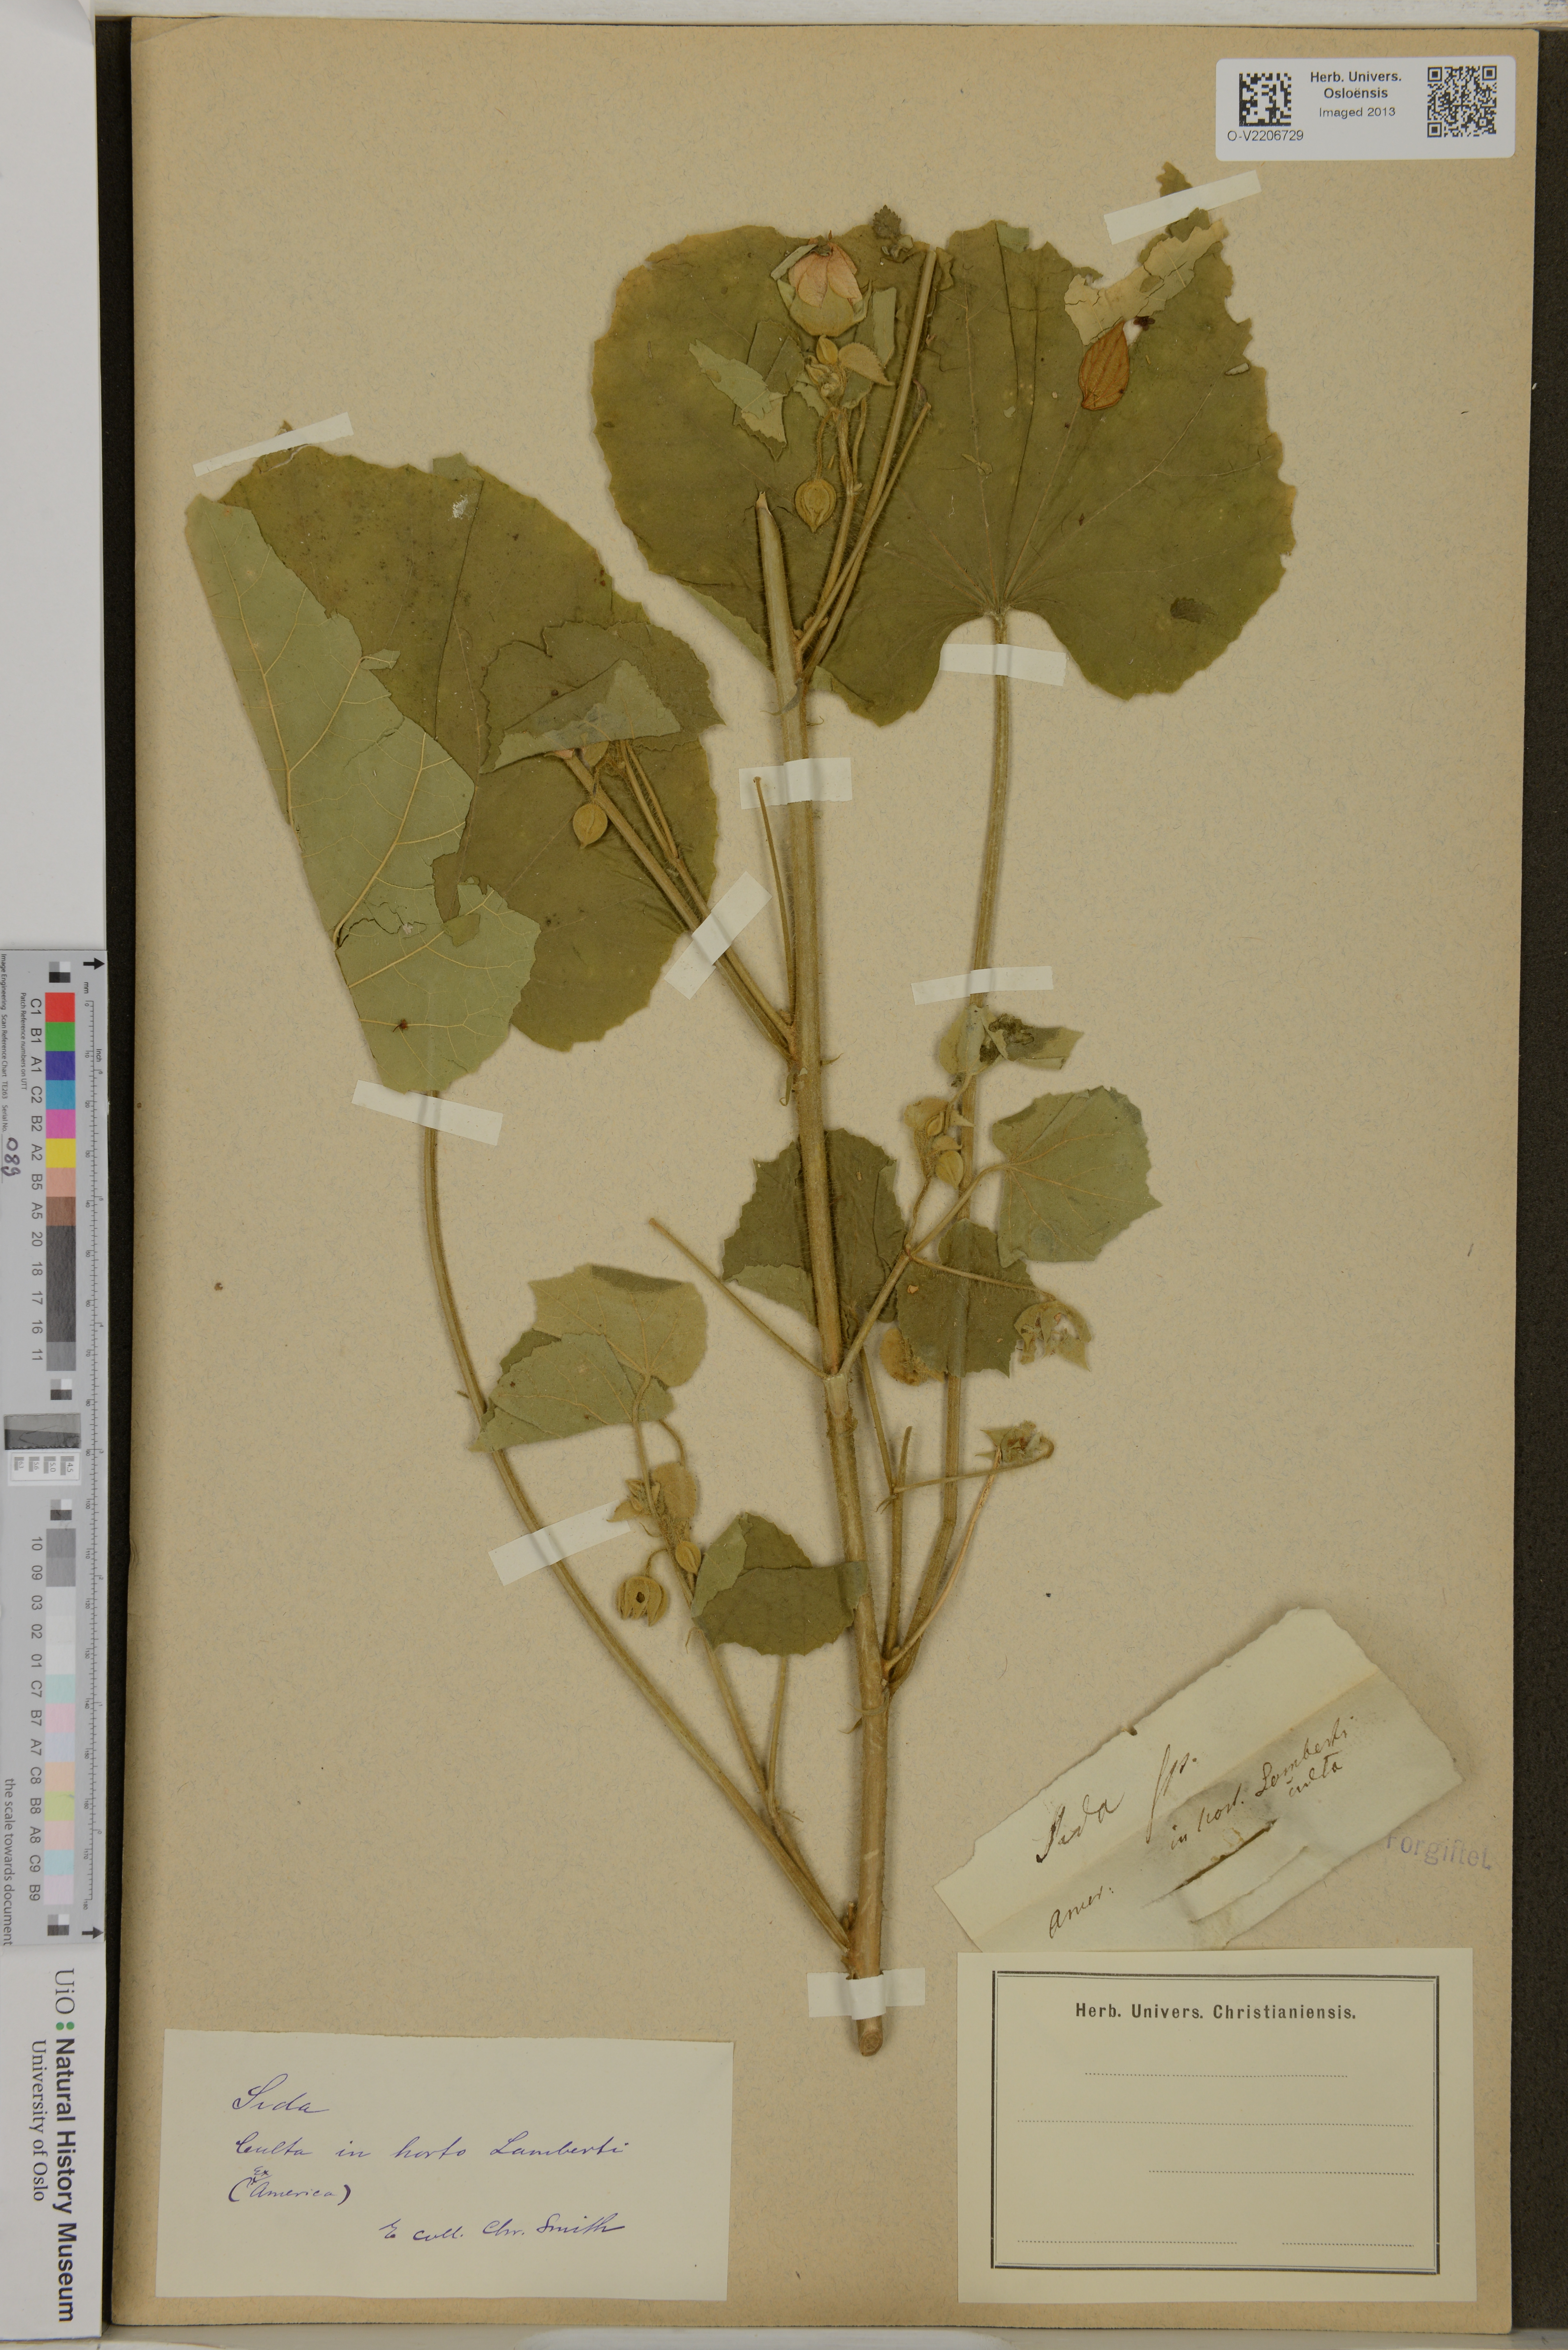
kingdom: Plantae
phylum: Tracheophyta
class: Magnoliopsida
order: Malvales
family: Malvaceae
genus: Sida
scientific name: Sida
